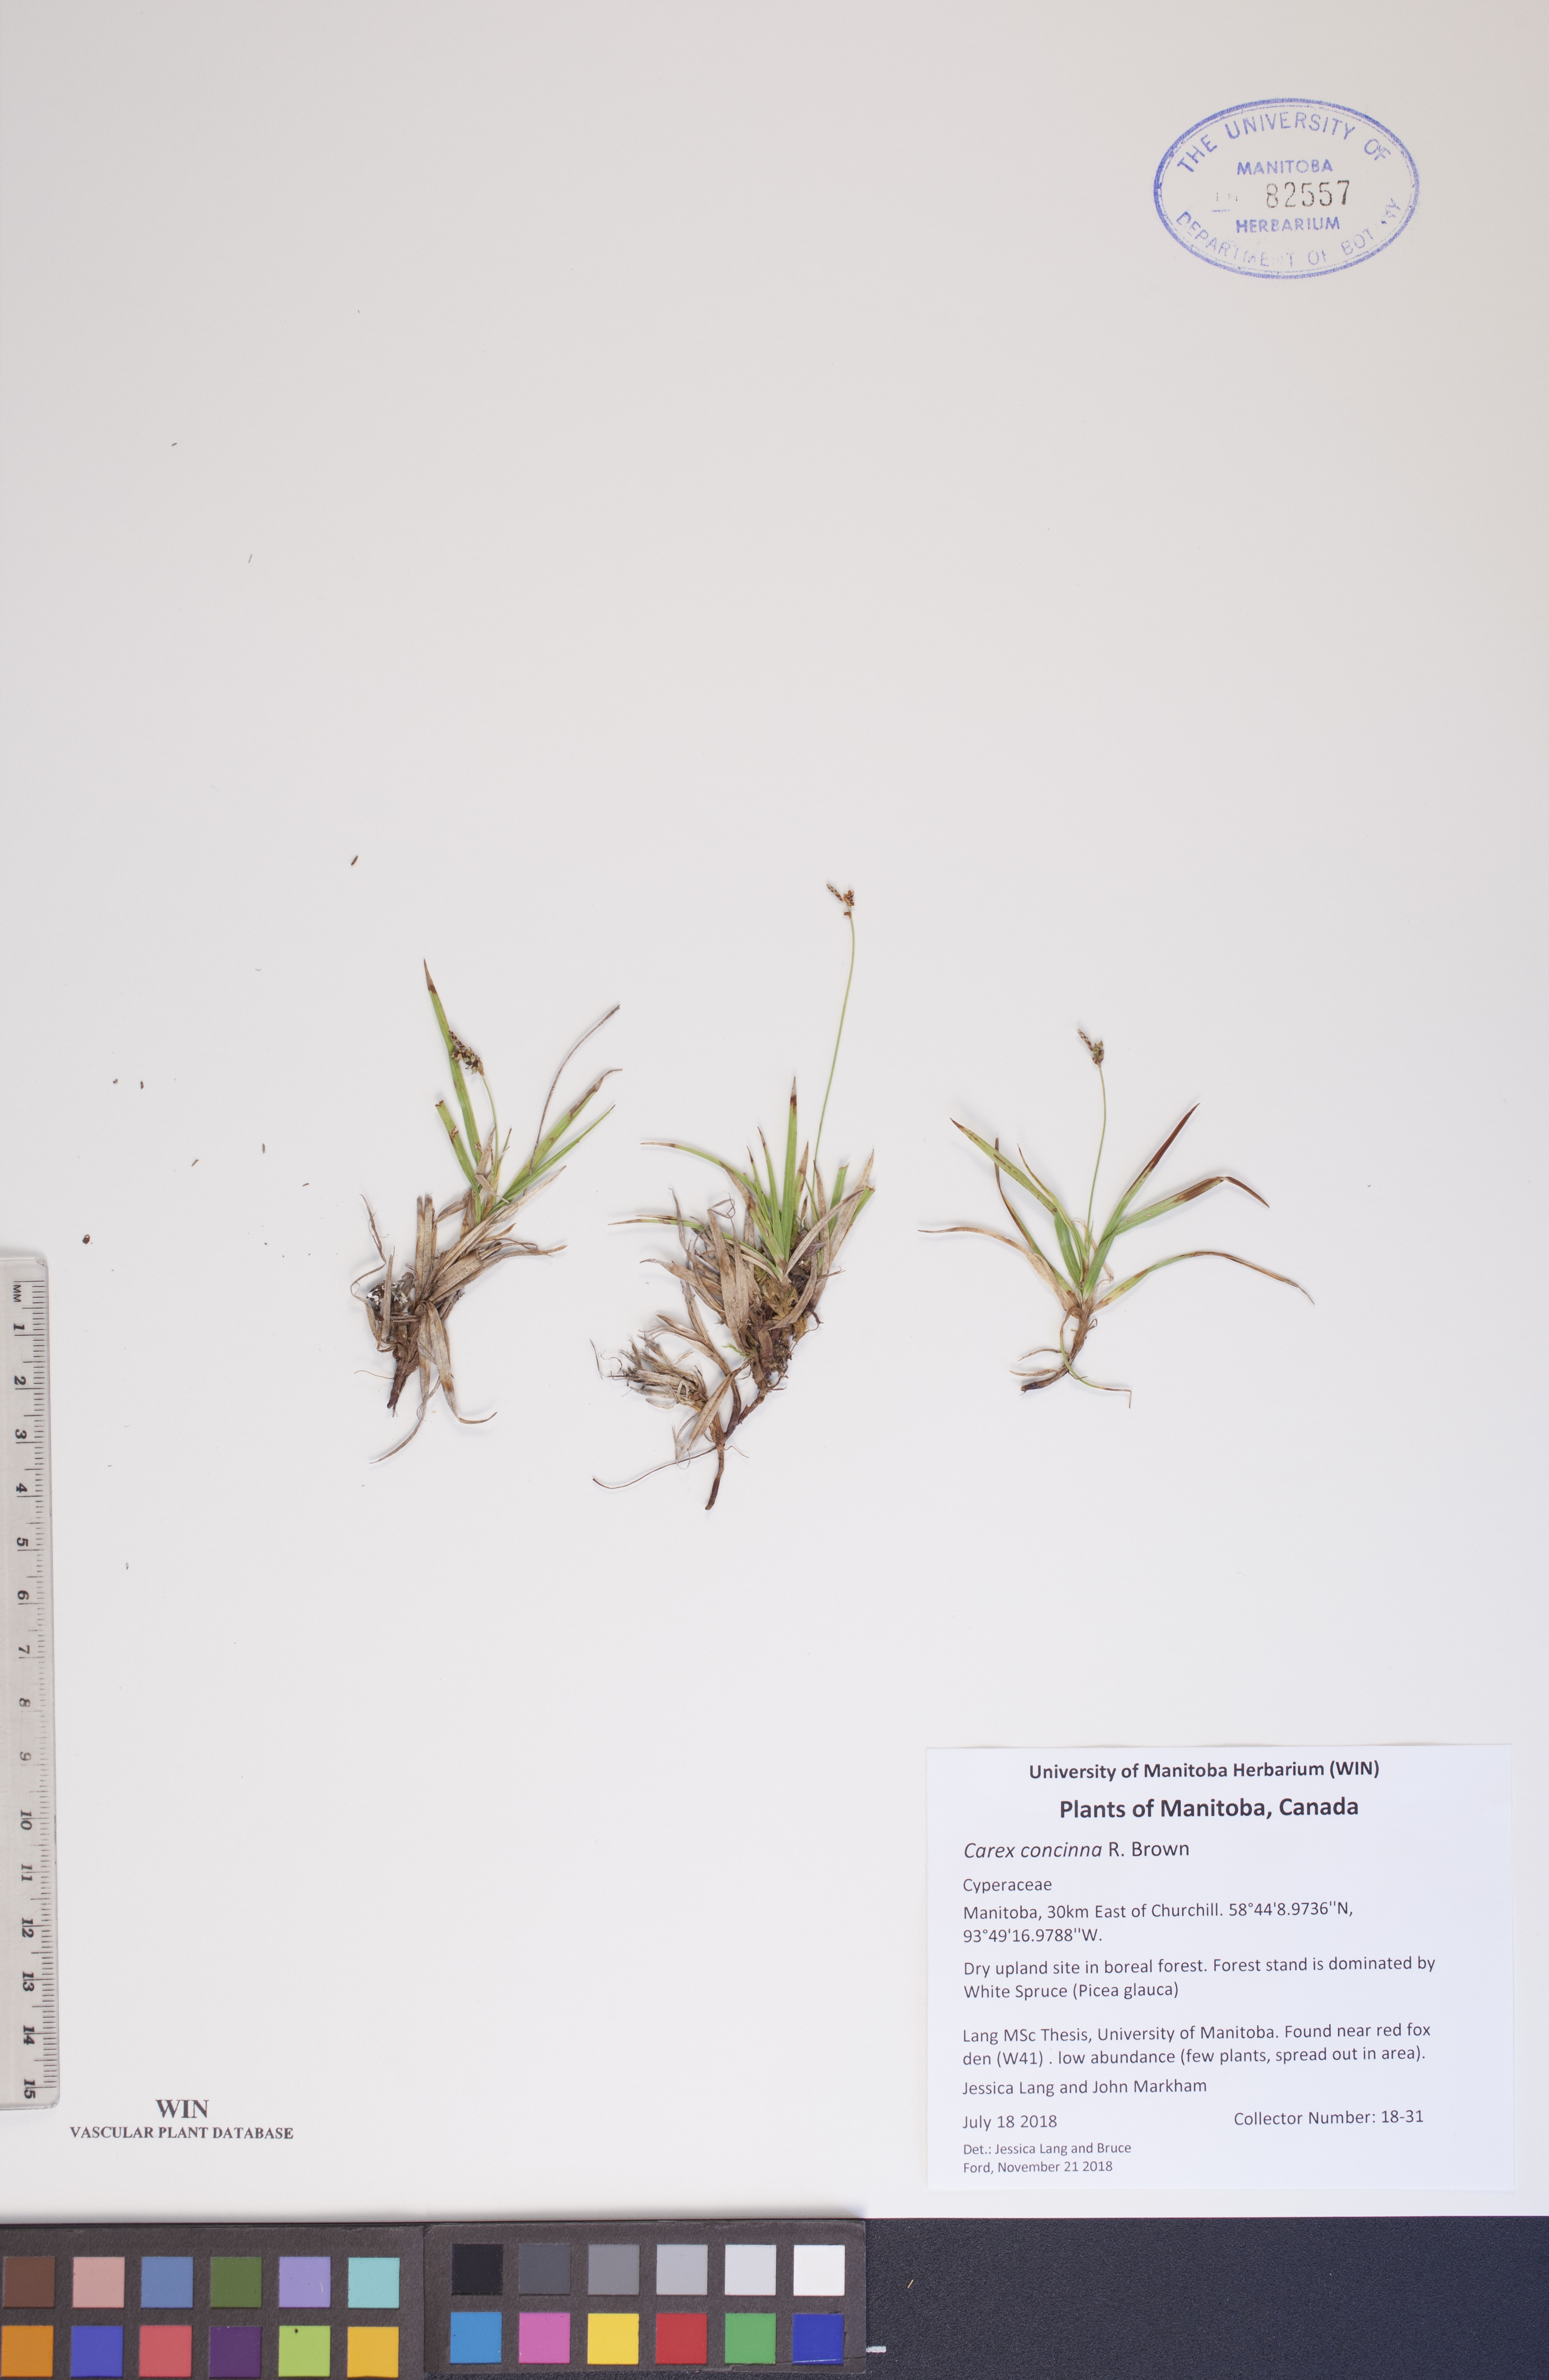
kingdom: Plantae
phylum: Tracheophyta
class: Liliopsida
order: Poales
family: Cyperaceae
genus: Carex
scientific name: Carex concinna
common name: Beautiful sedge
